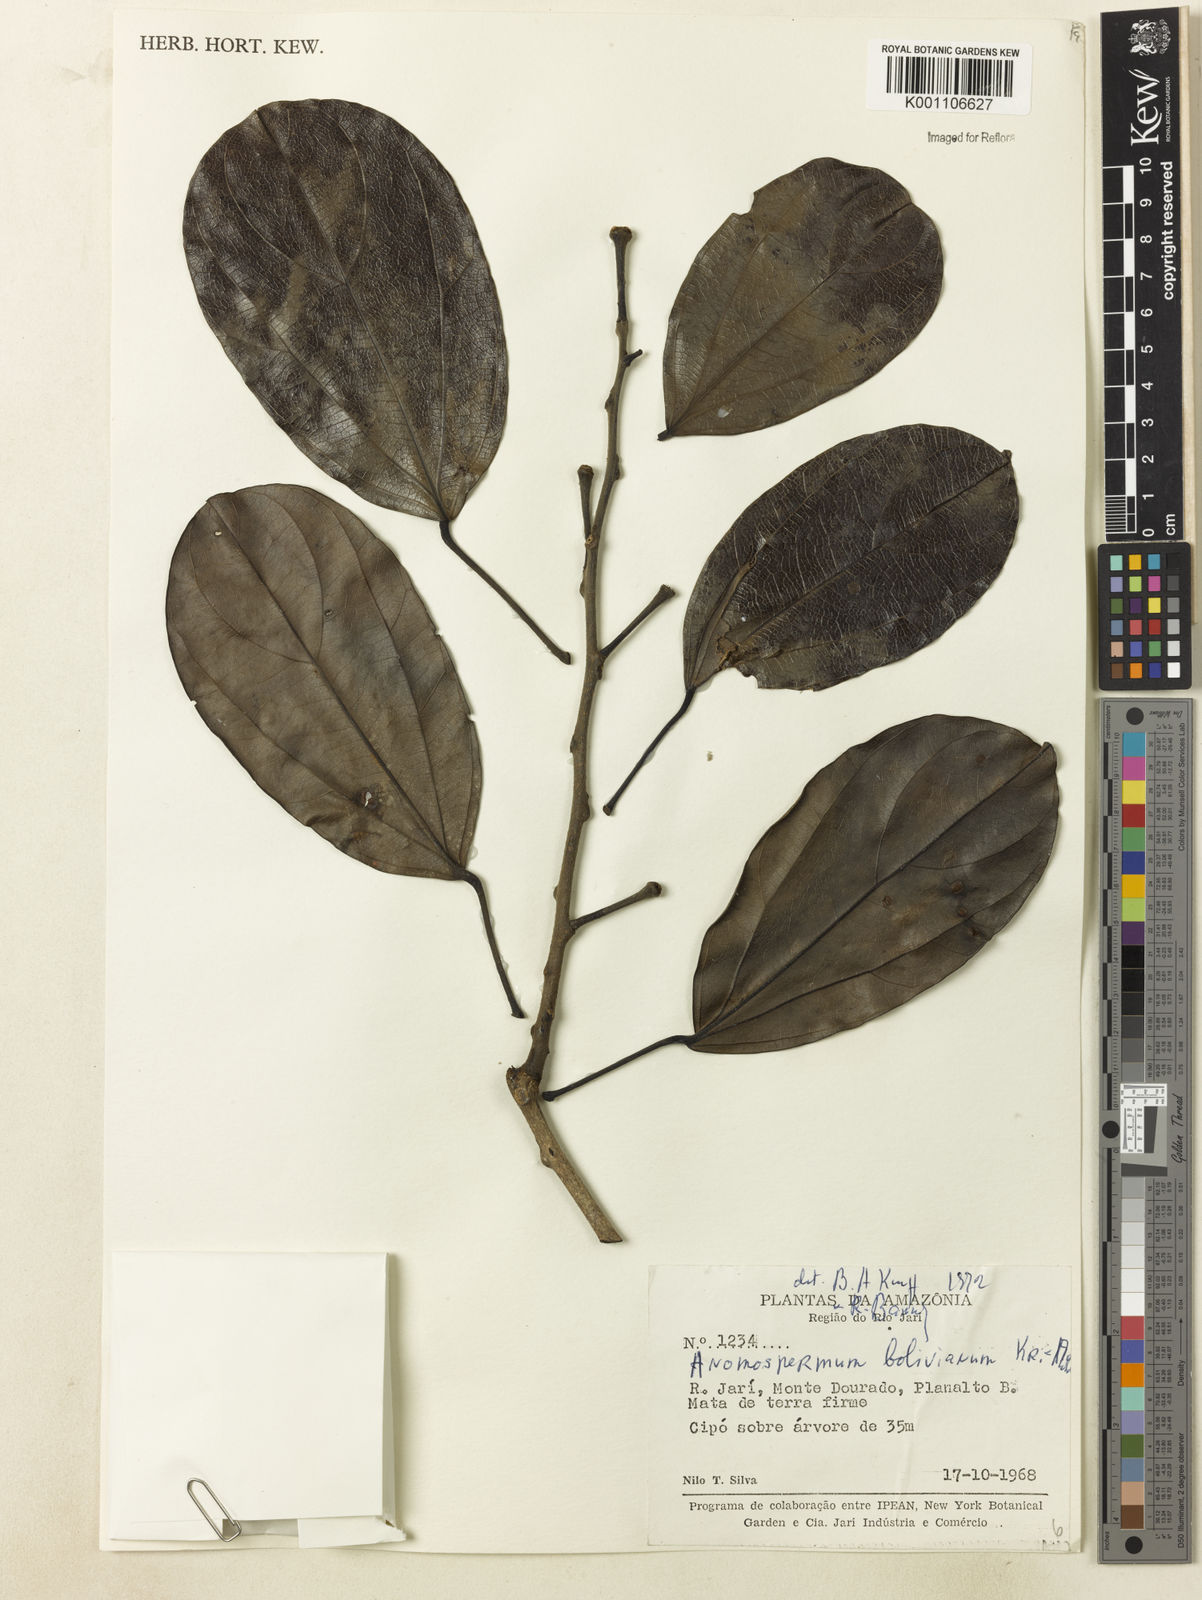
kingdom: Plantae
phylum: Tracheophyta
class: Magnoliopsida
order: Ranunculales
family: Menispermaceae
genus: Rupertiella
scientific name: Rupertiella boliviana
